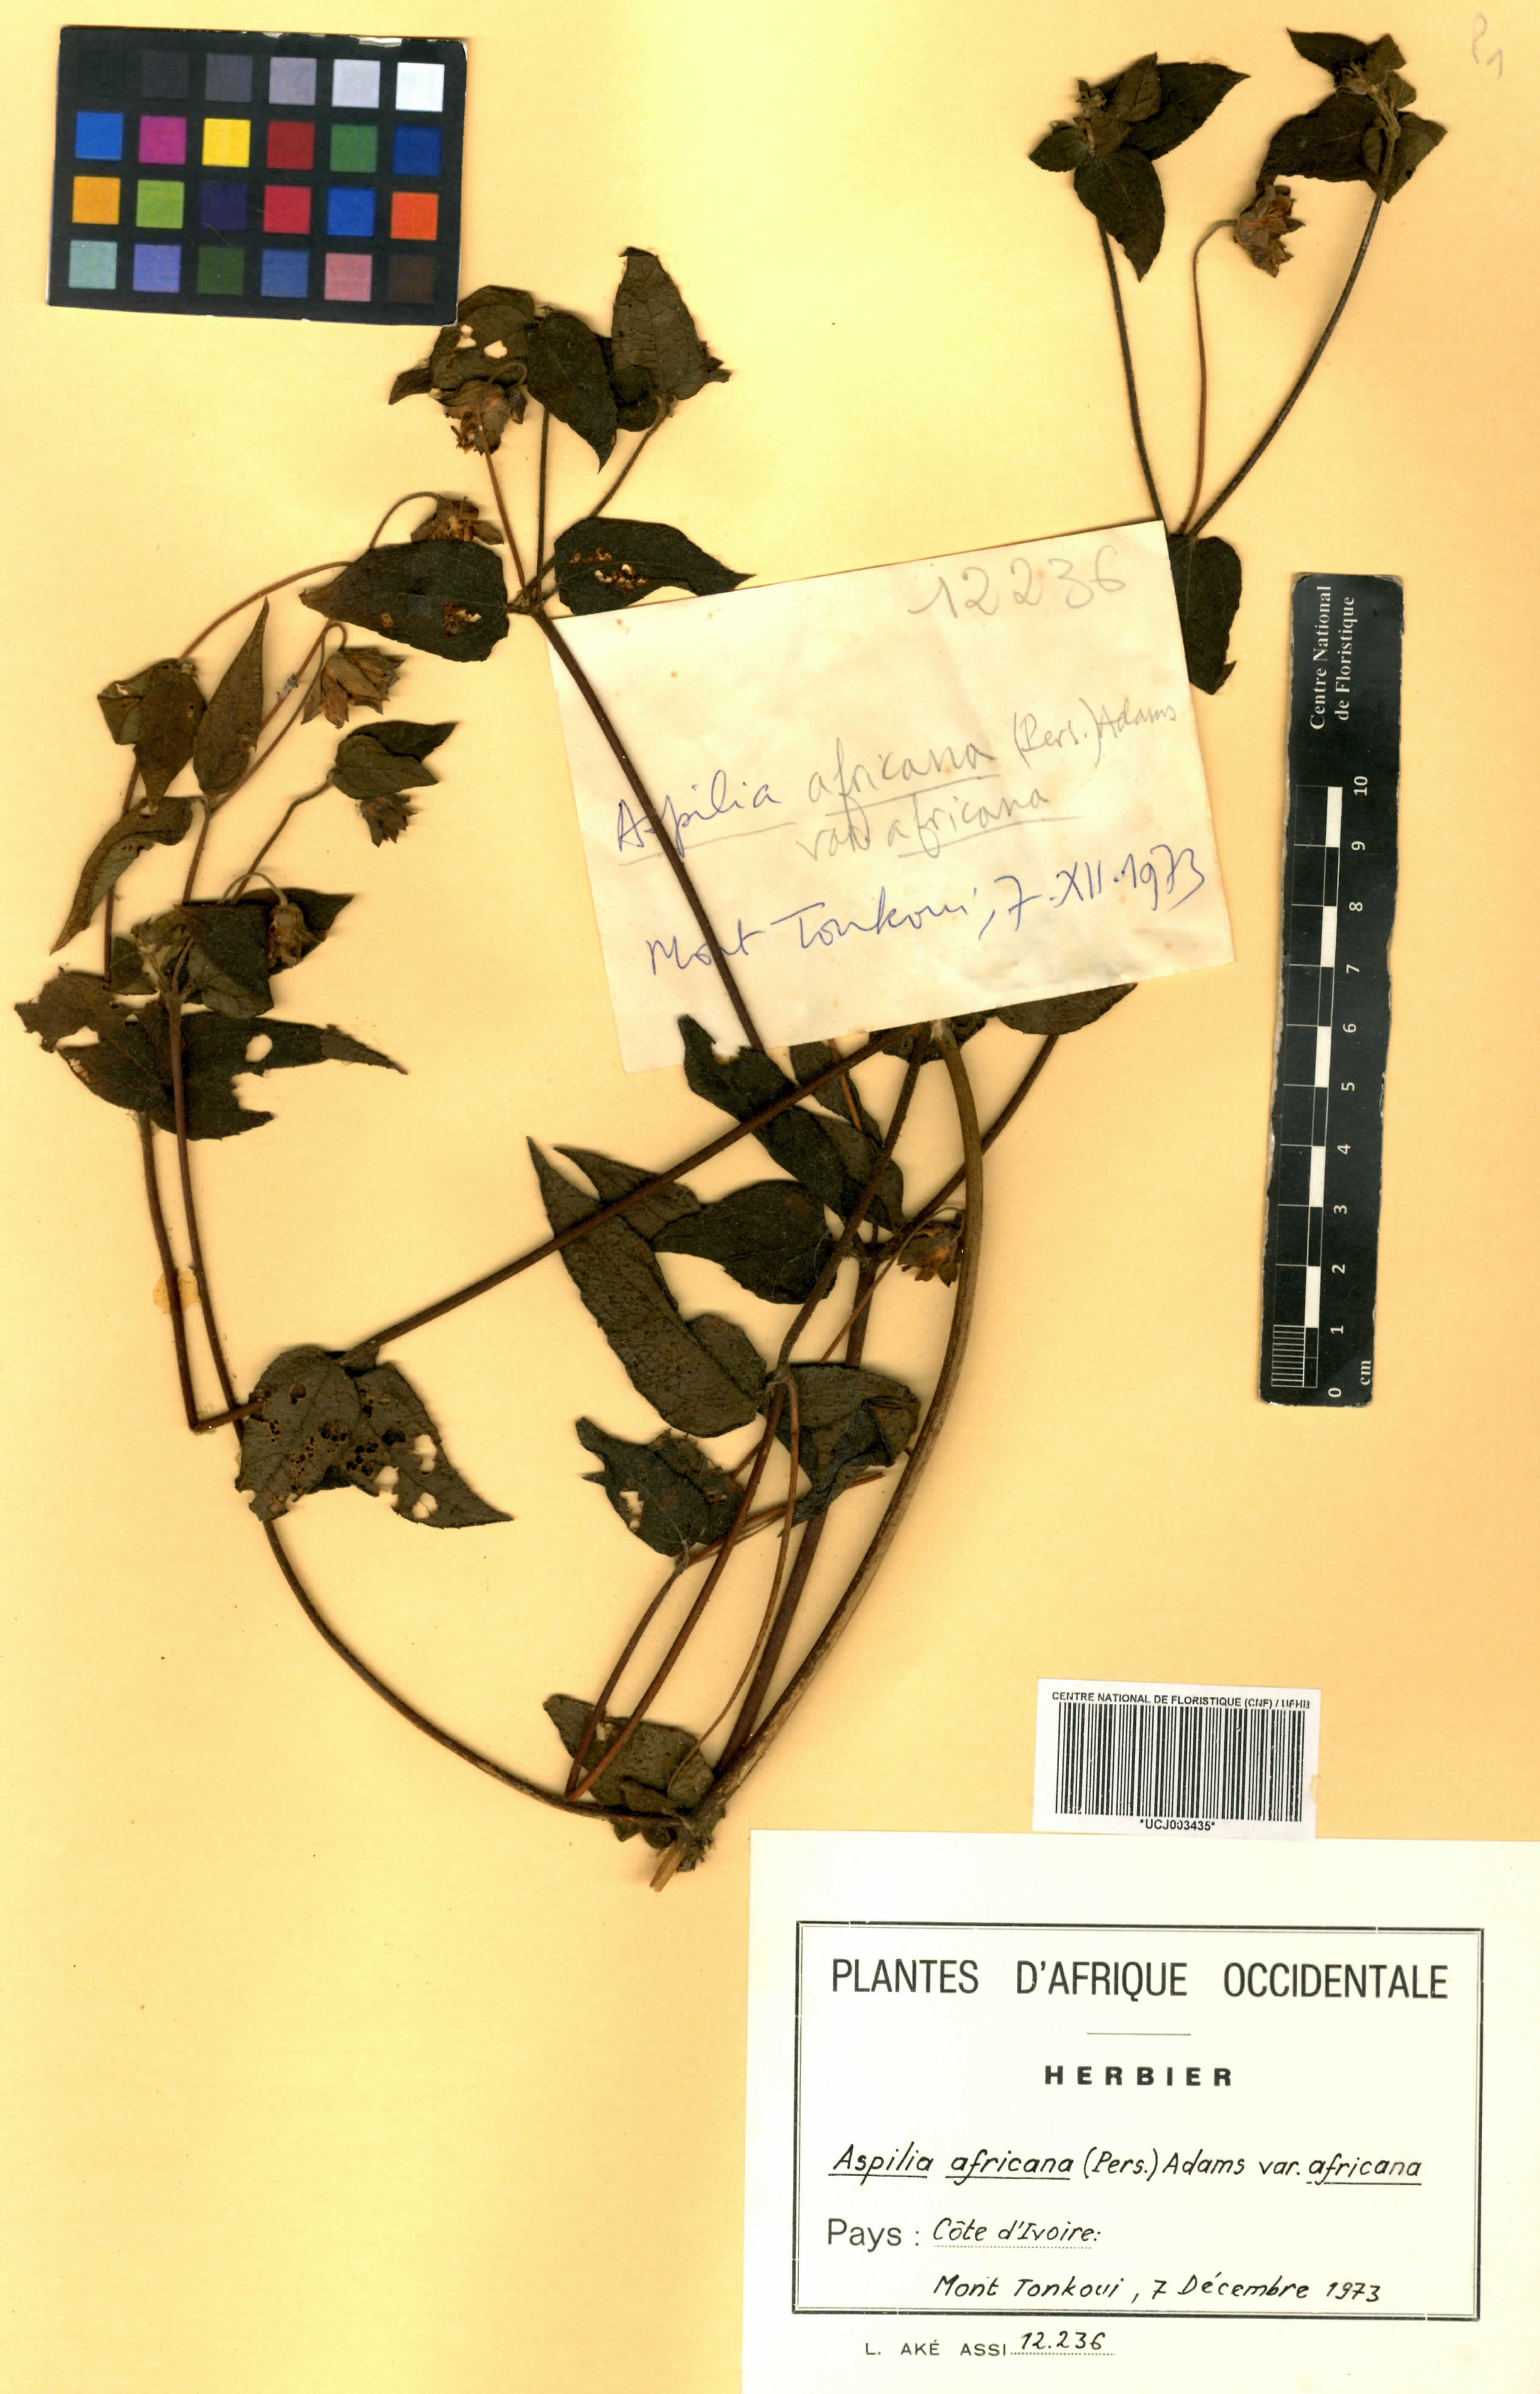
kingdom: Plantae
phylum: Tracheophyta
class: Magnoliopsida
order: Asterales
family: Asteraceae
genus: Aspilia
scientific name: Aspilia africana
